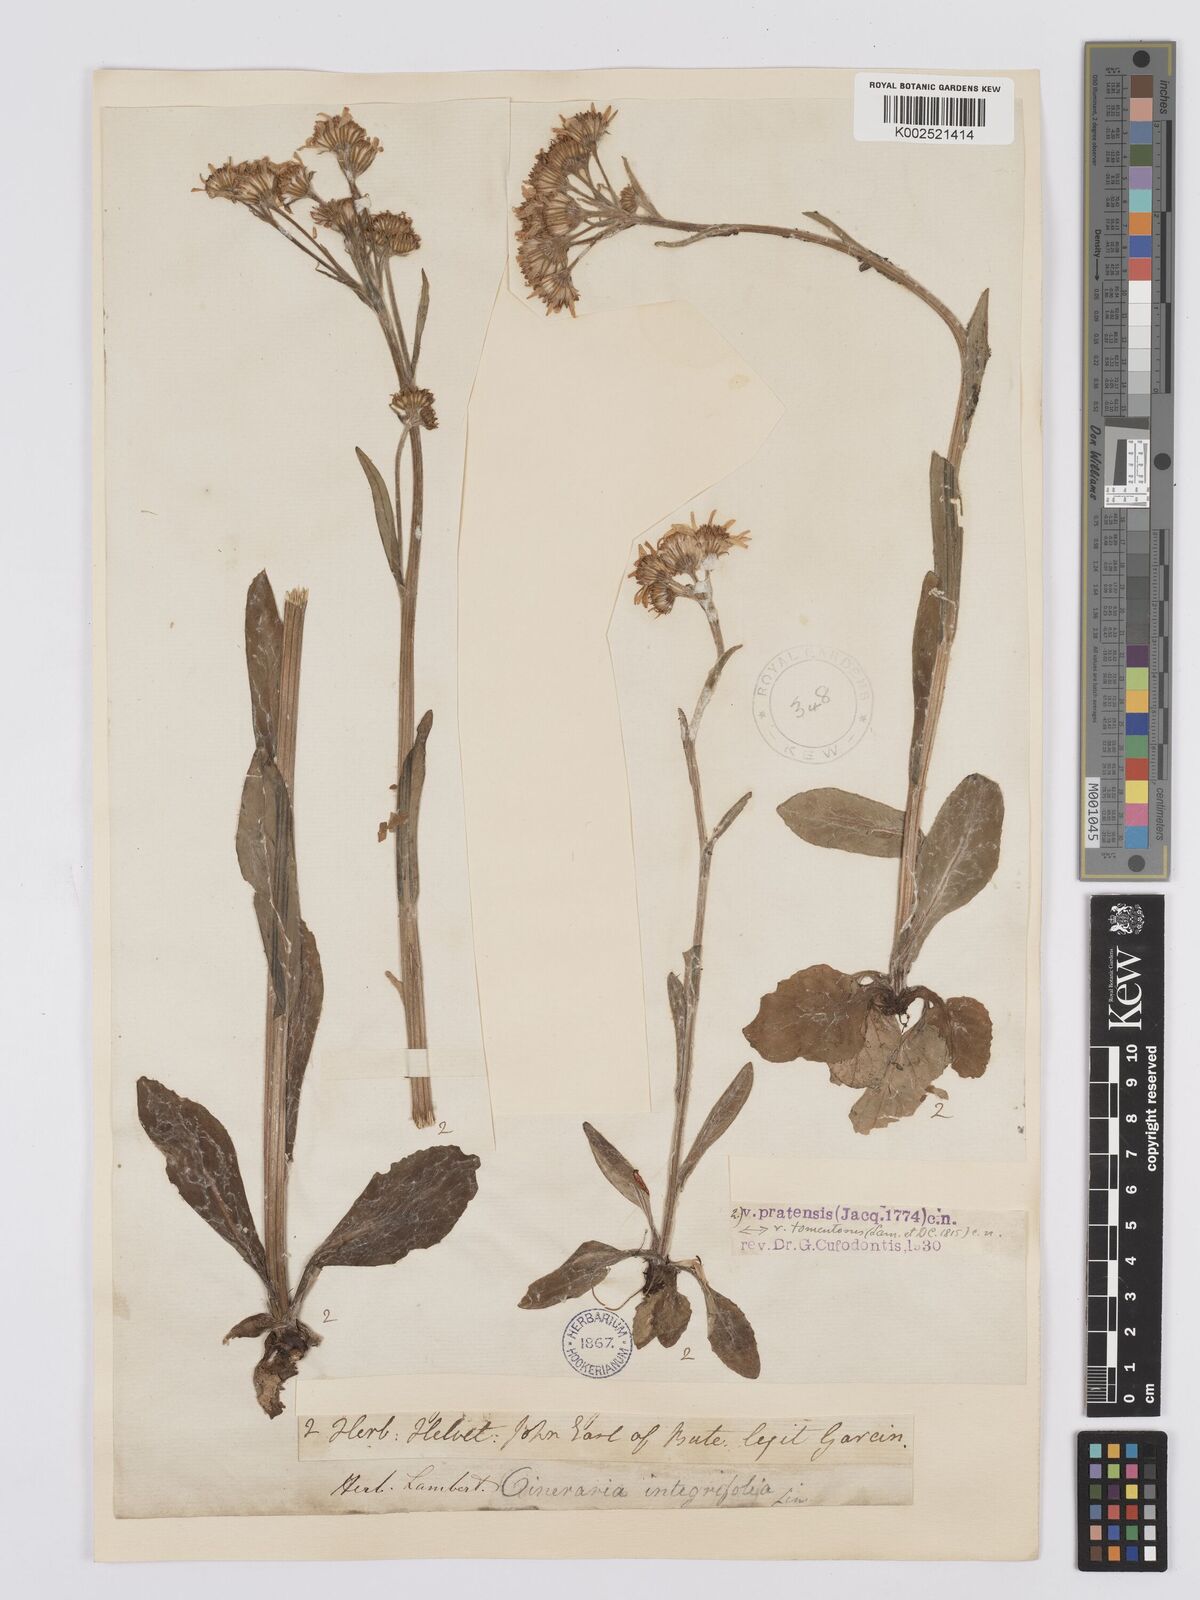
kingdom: Plantae
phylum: Tracheophyta
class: Magnoliopsida
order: Asterales
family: Asteraceae
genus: Tephroseris
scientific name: Tephroseris integrifolia
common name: Field fleawort
